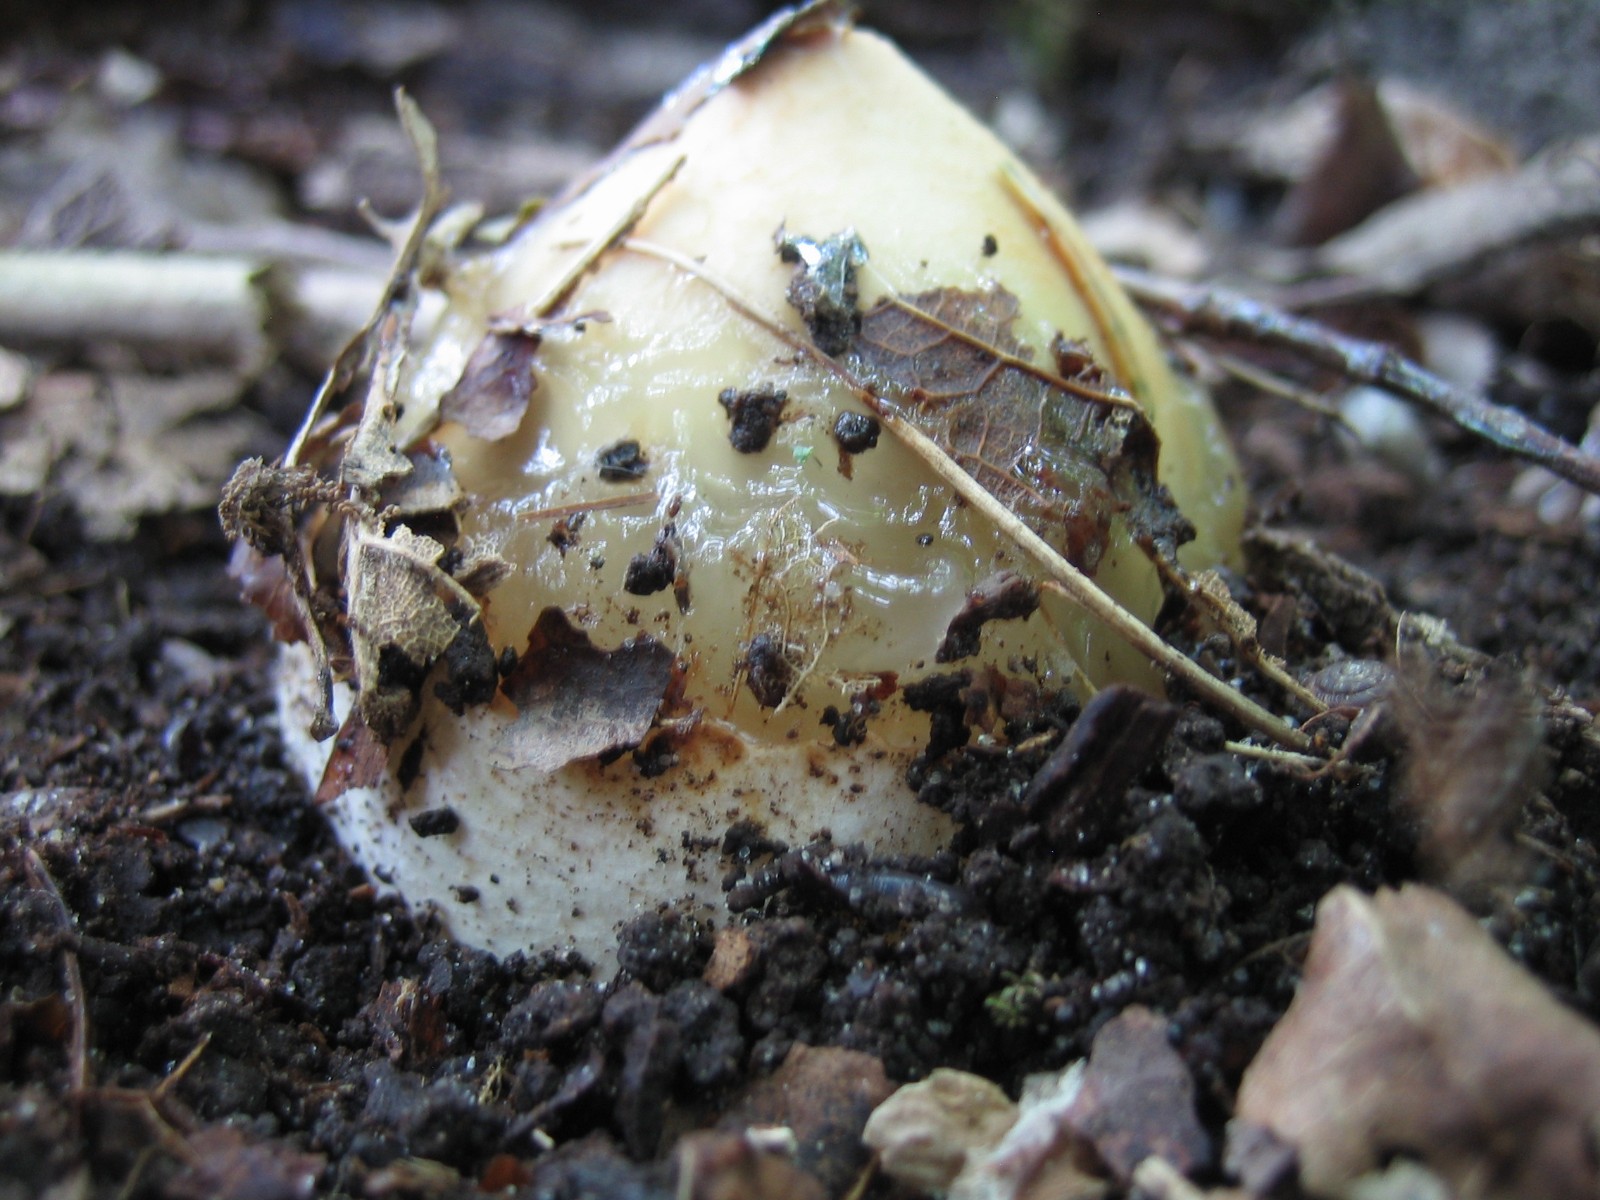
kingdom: Fungi
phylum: Basidiomycota
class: Agaricomycetes
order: Phallales
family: Phallaceae
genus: Phallus
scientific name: Phallus impudicus
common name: almindelig stinksvamp
